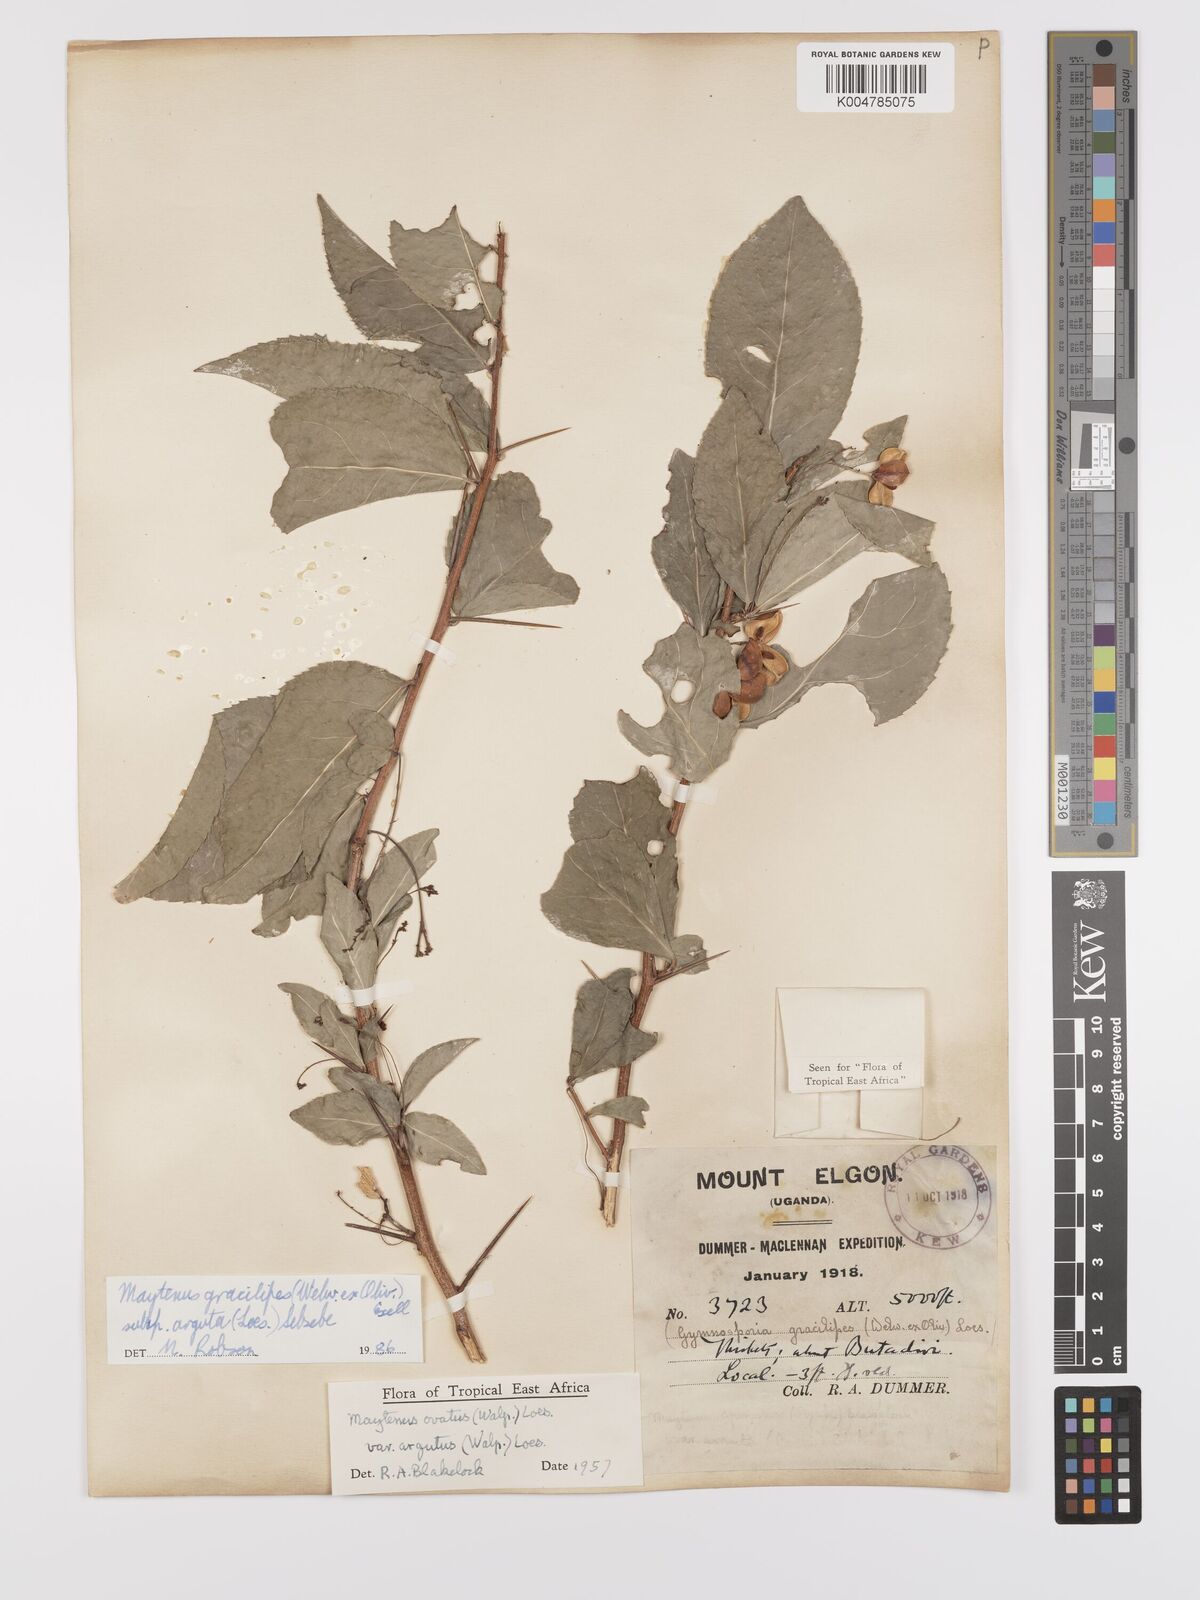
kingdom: Plantae
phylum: Tracheophyta
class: Magnoliopsida
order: Celastrales
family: Celastraceae
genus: Gymnosporia
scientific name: Gymnosporia gracilipes
